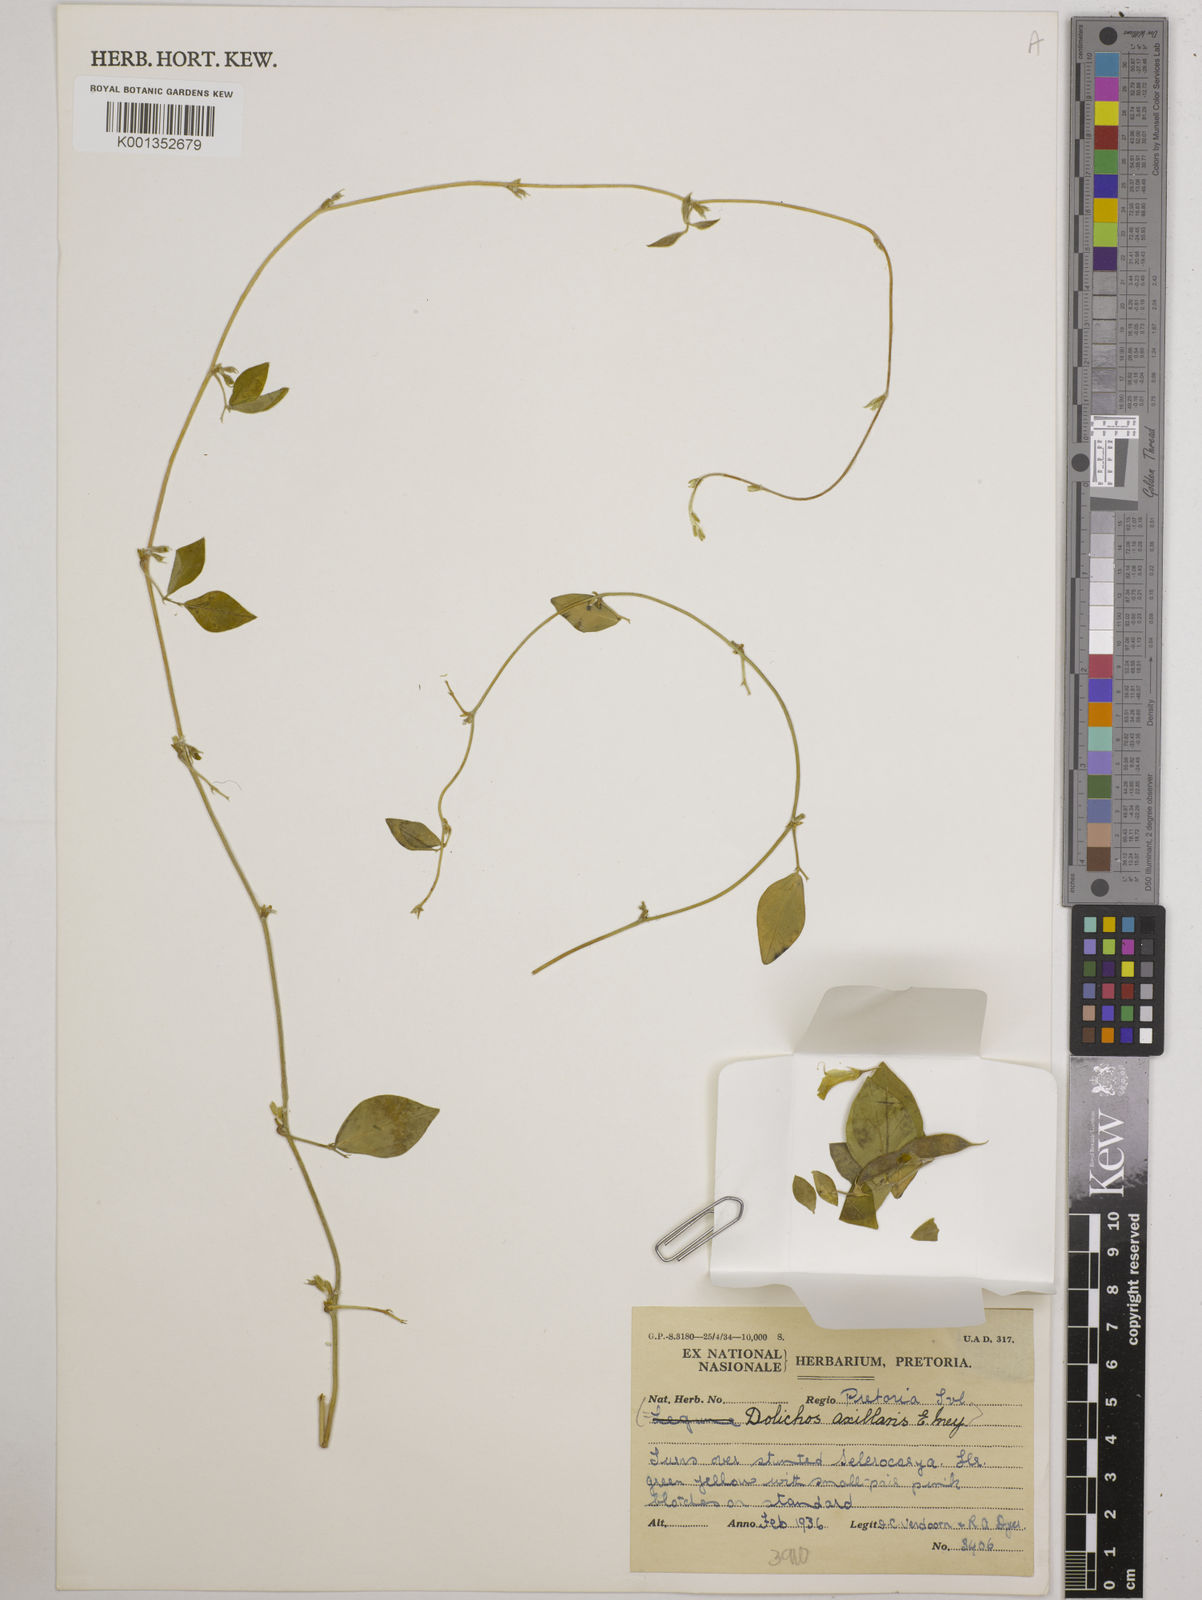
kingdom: Plantae
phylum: Tracheophyta
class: Magnoliopsida
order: Fabales
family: Fabaceae
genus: Macrotyloma
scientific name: Macrotyloma axillare
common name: Perennial horsegram
